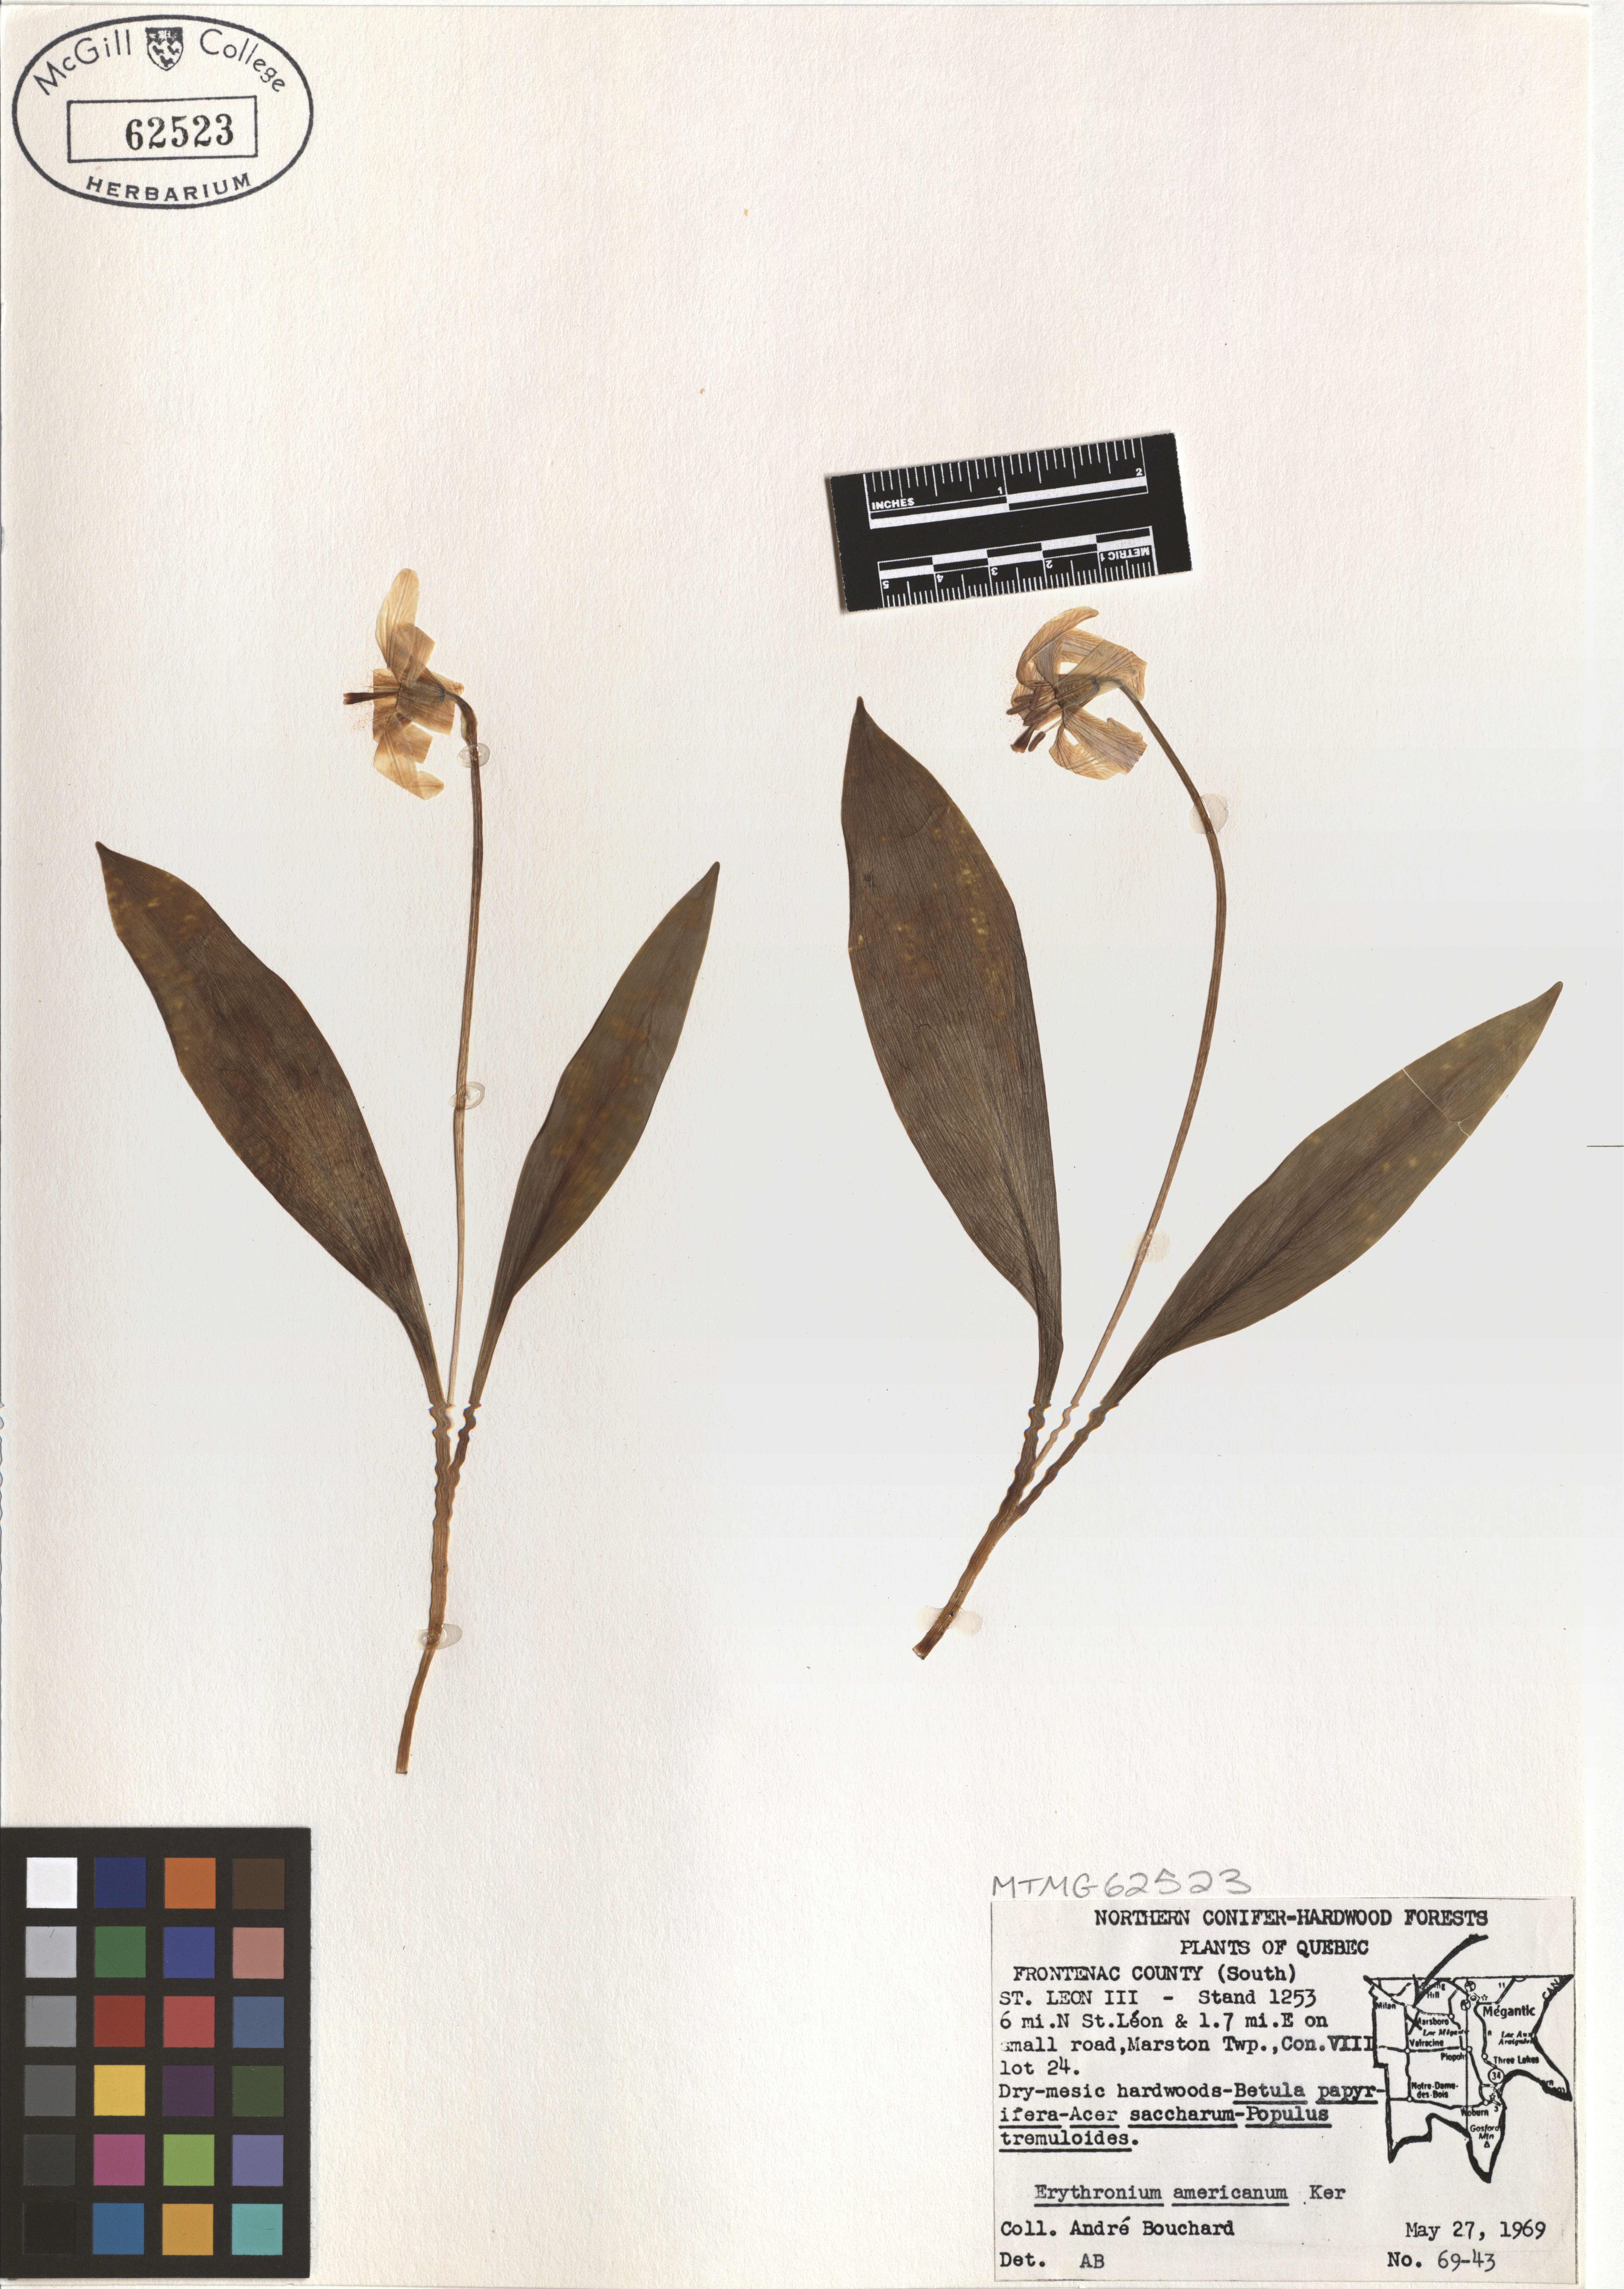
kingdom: Plantae
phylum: Tracheophyta
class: Liliopsida
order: Liliales
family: Liliaceae
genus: Erythronium
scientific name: Erythronium americanum
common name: Yellow adder's-tongue
